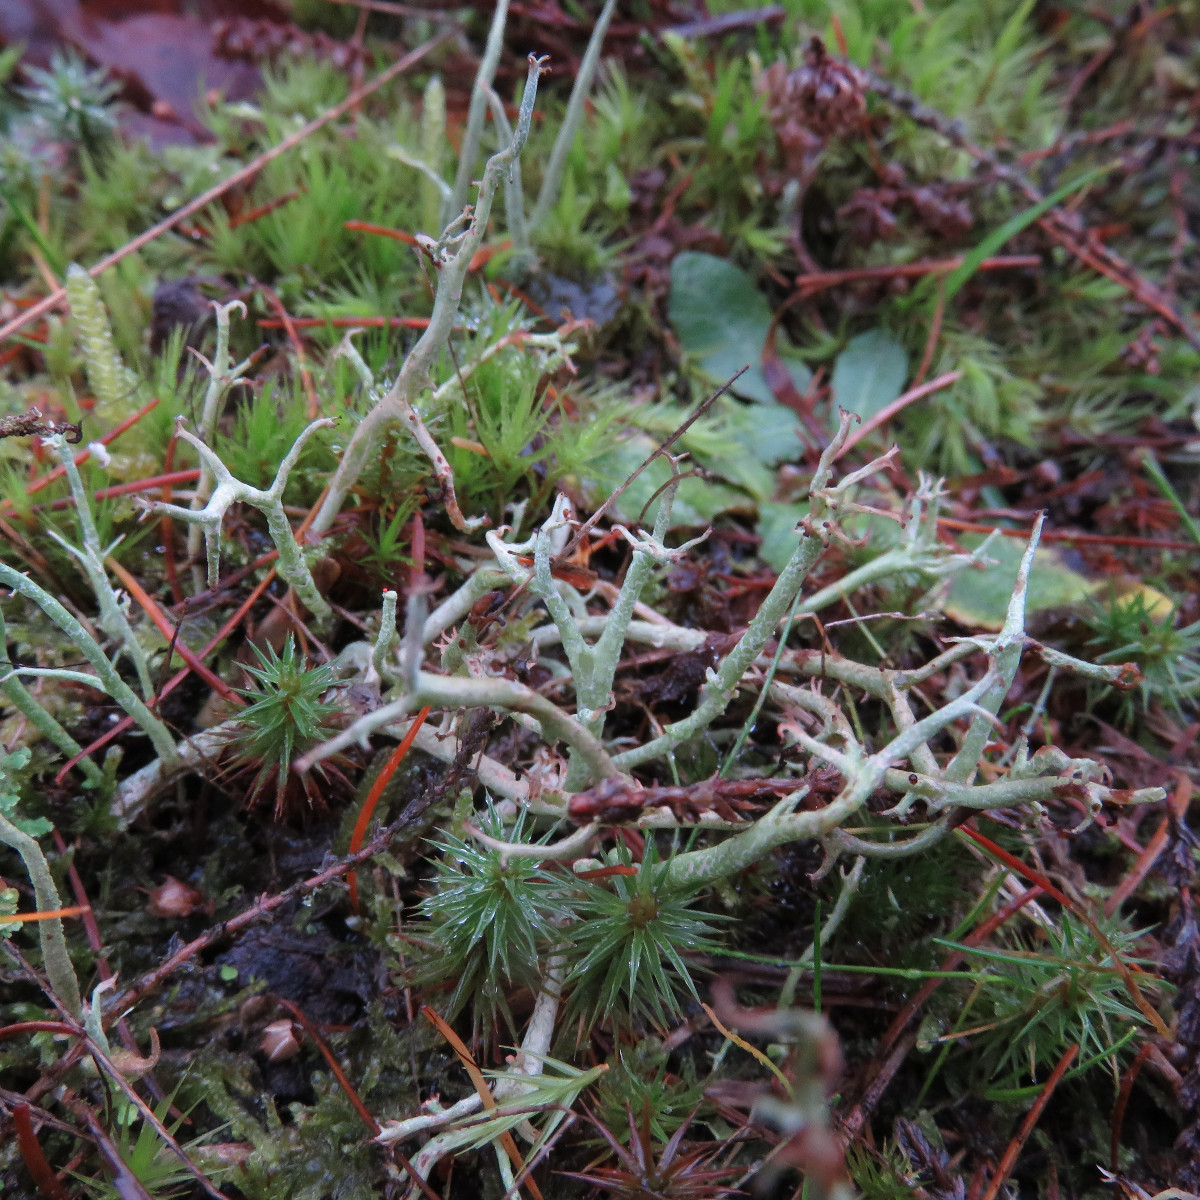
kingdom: Fungi
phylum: Ascomycota
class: Lecanoromycetes
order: Lecanorales
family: Cladoniaceae
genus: Cladonia
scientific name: Cladonia rangiformis
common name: spættet bægerlav
